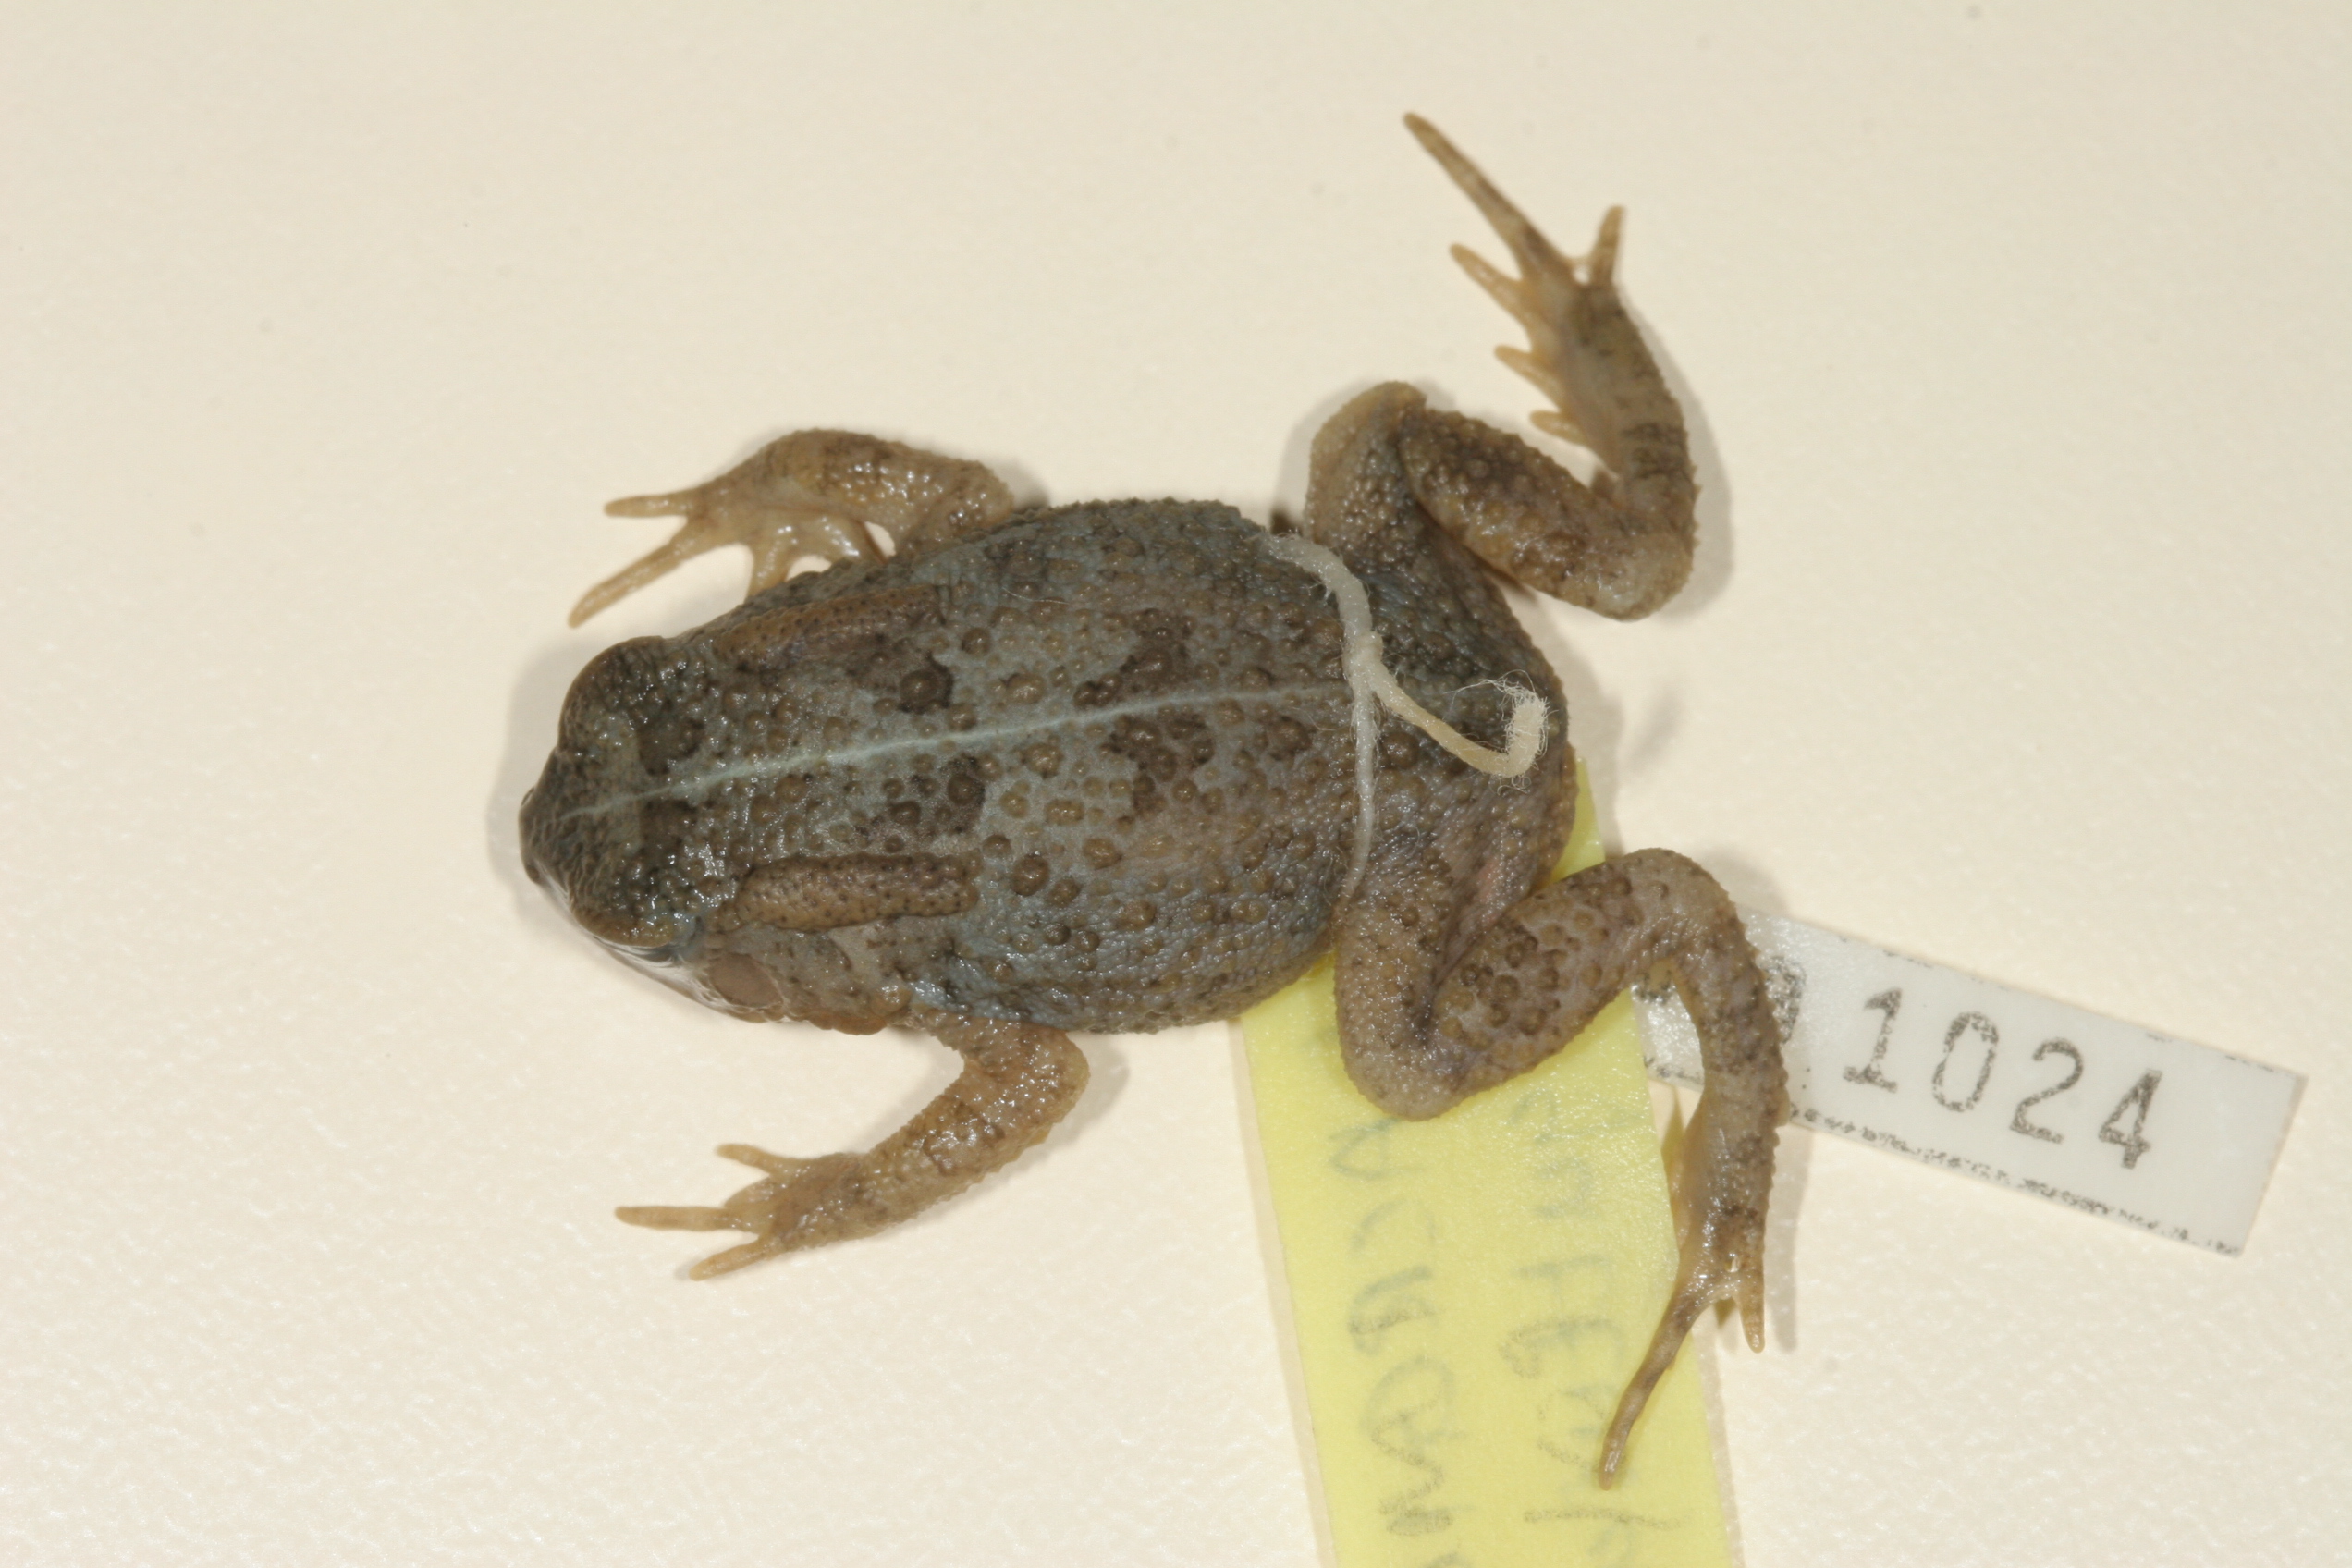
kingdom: Animalia
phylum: Chordata
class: Amphibia
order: Anura
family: Bufonidae
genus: Sclerophrys
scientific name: Sclerophrys gutturalis
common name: African common toad
